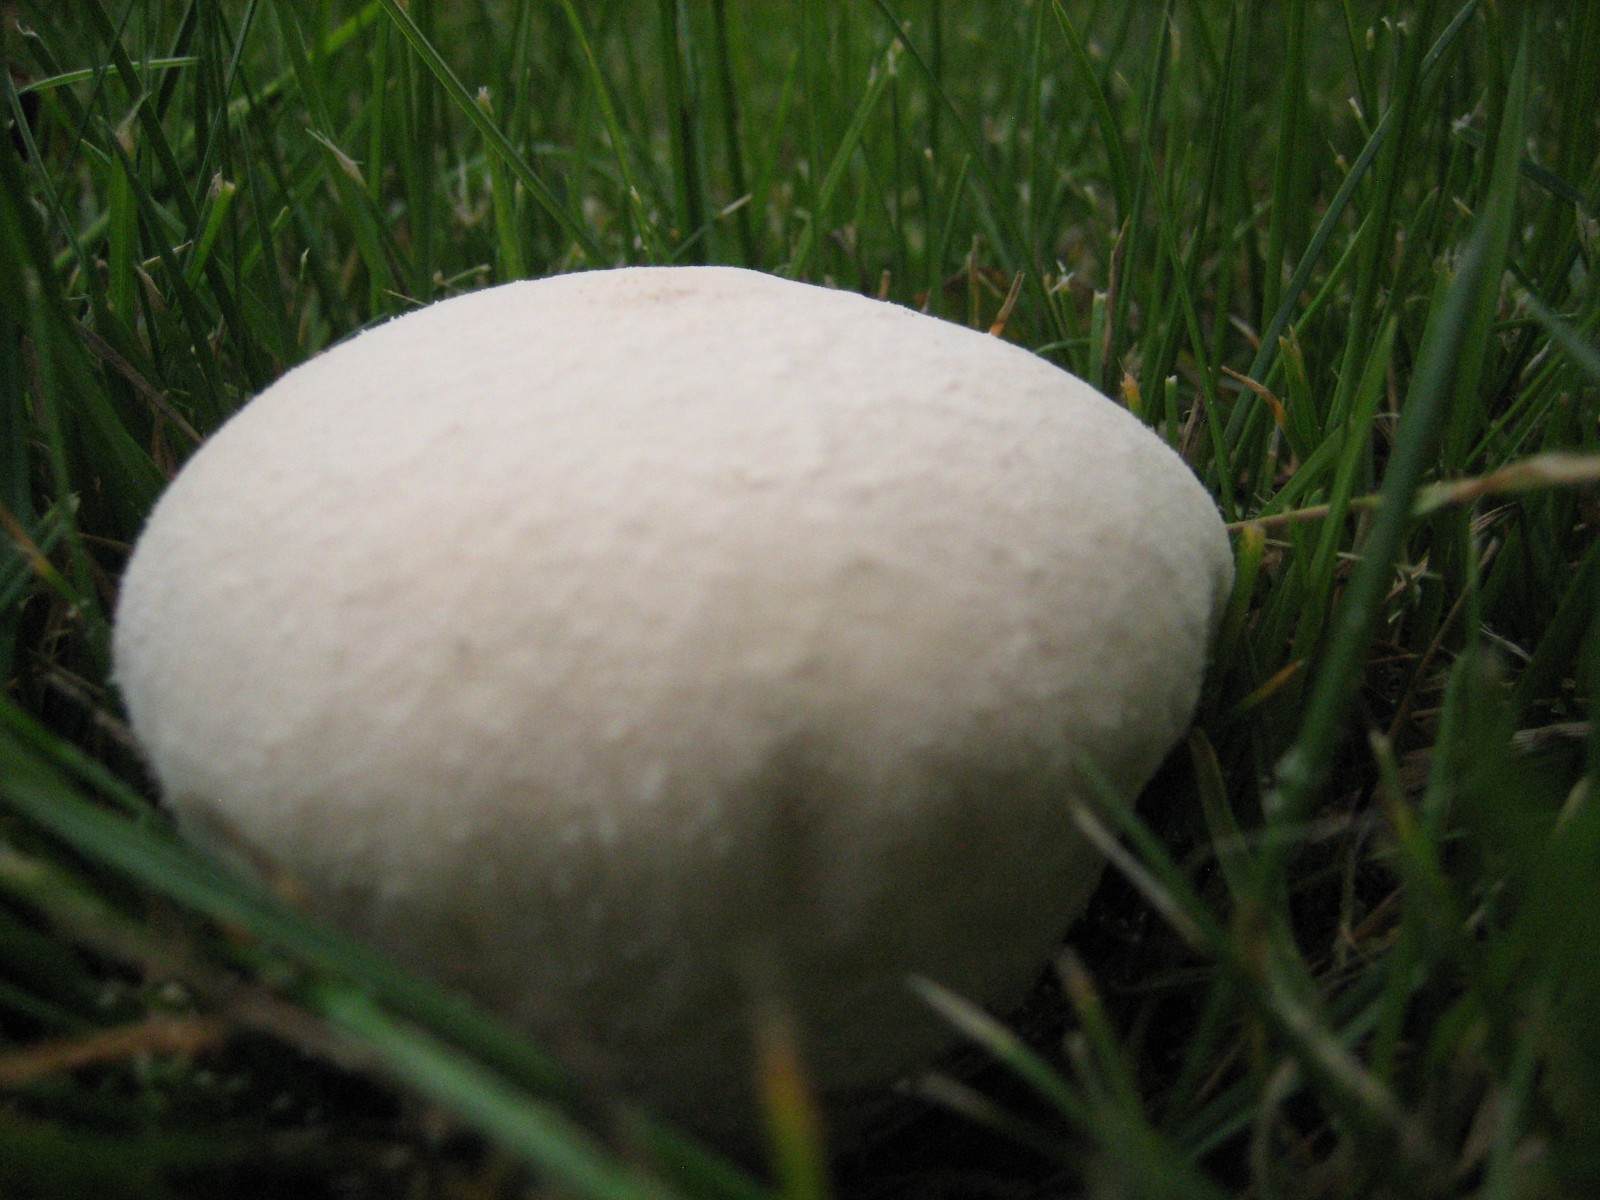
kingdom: Fungi
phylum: Basidiomycota
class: Agaricomycetes
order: Agaricales
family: Lycoperdaceae
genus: Lycoperdon
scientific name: Lycoperdon pratense
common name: flad støvbold
